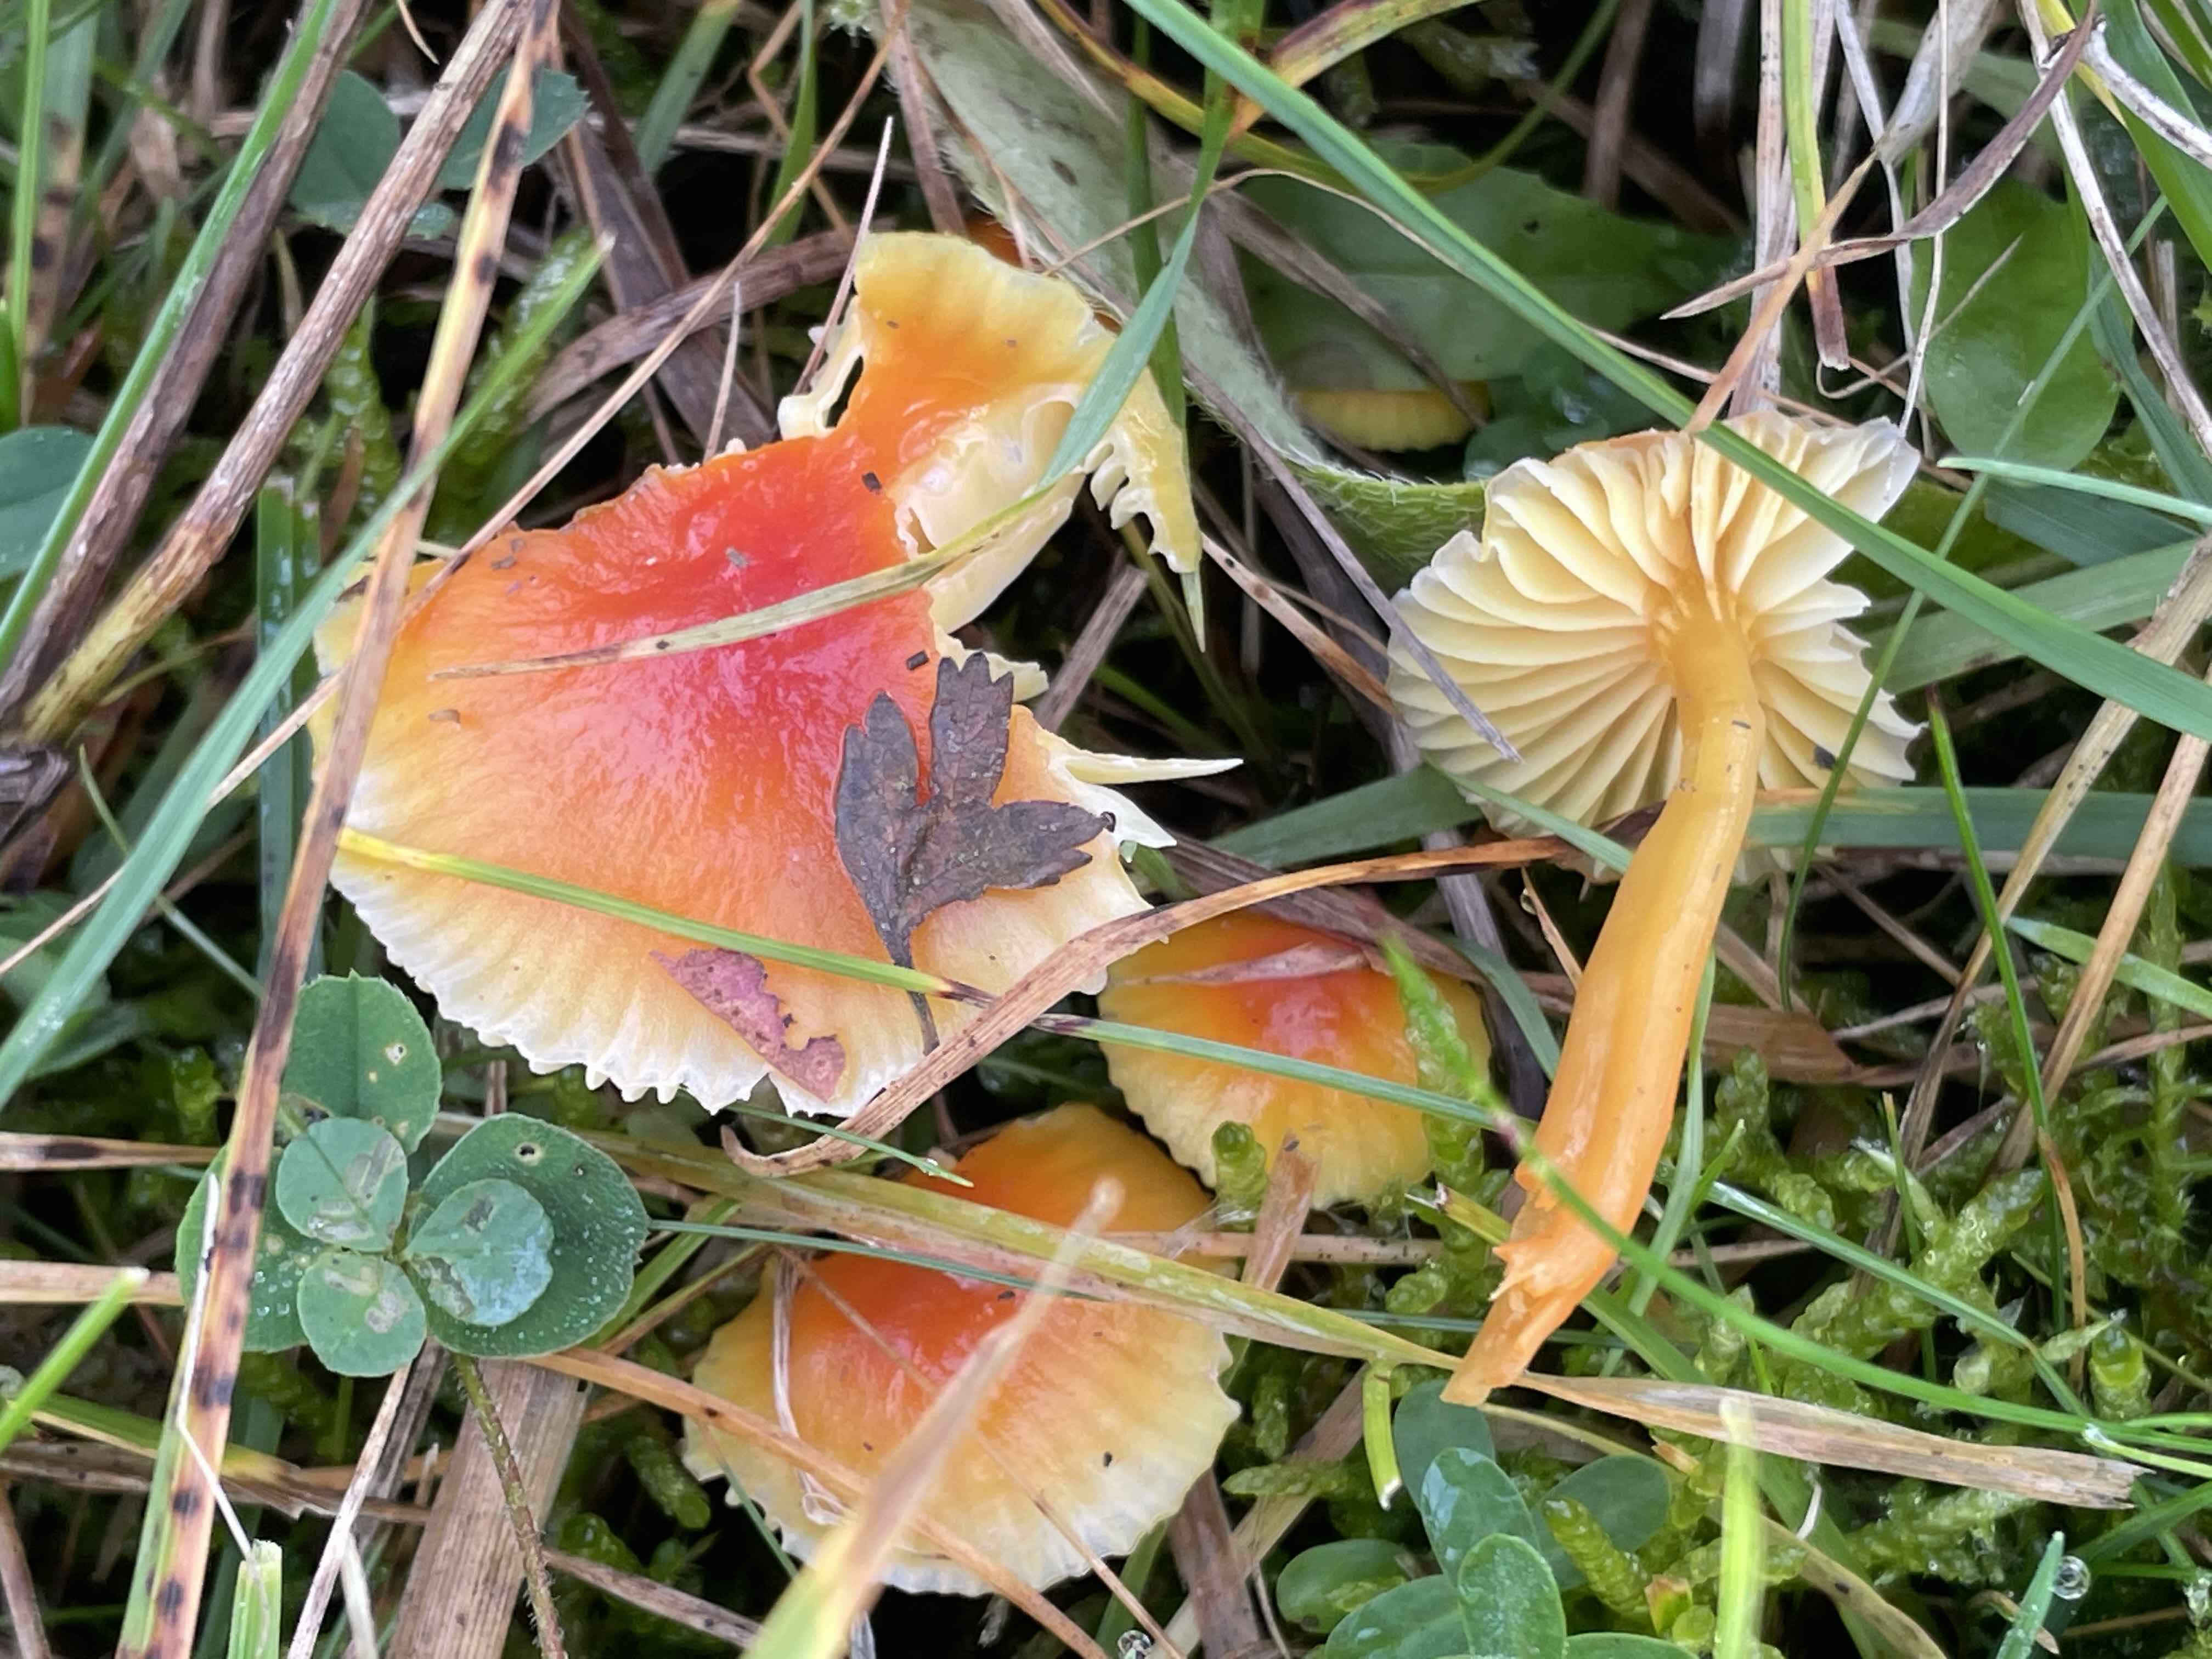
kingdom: Fungi
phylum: Basidiomycota
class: Agaricomycetes
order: Agaricales
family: Hygrophoraceae
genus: Hygrocybe
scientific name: Hygrocybe mucronella
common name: bitter vokshat
